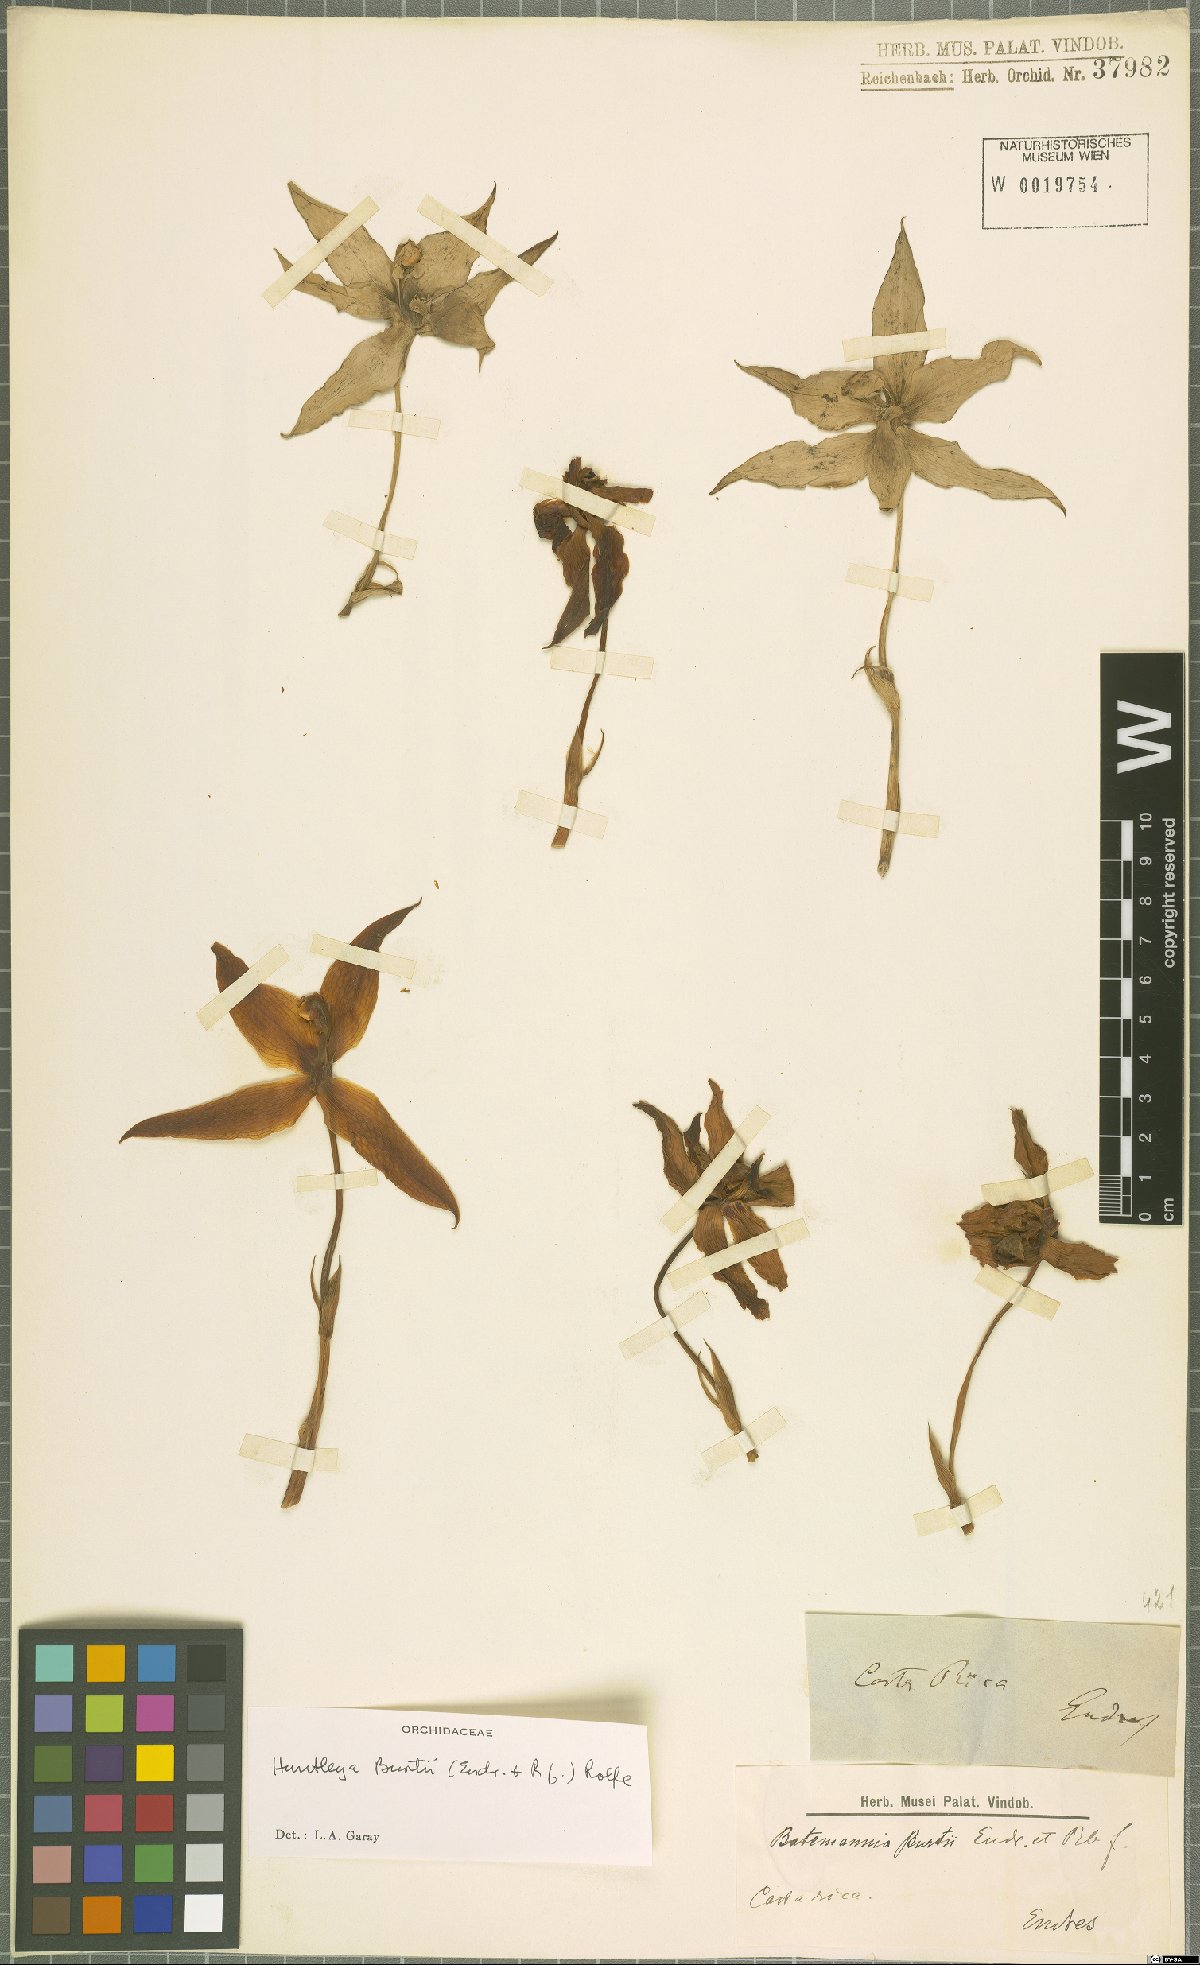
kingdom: Plantae
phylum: Tracheophyta
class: Liliopsida
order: Asparagales
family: Orchidaceae
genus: Huntleya
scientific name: Huntleya burtii
